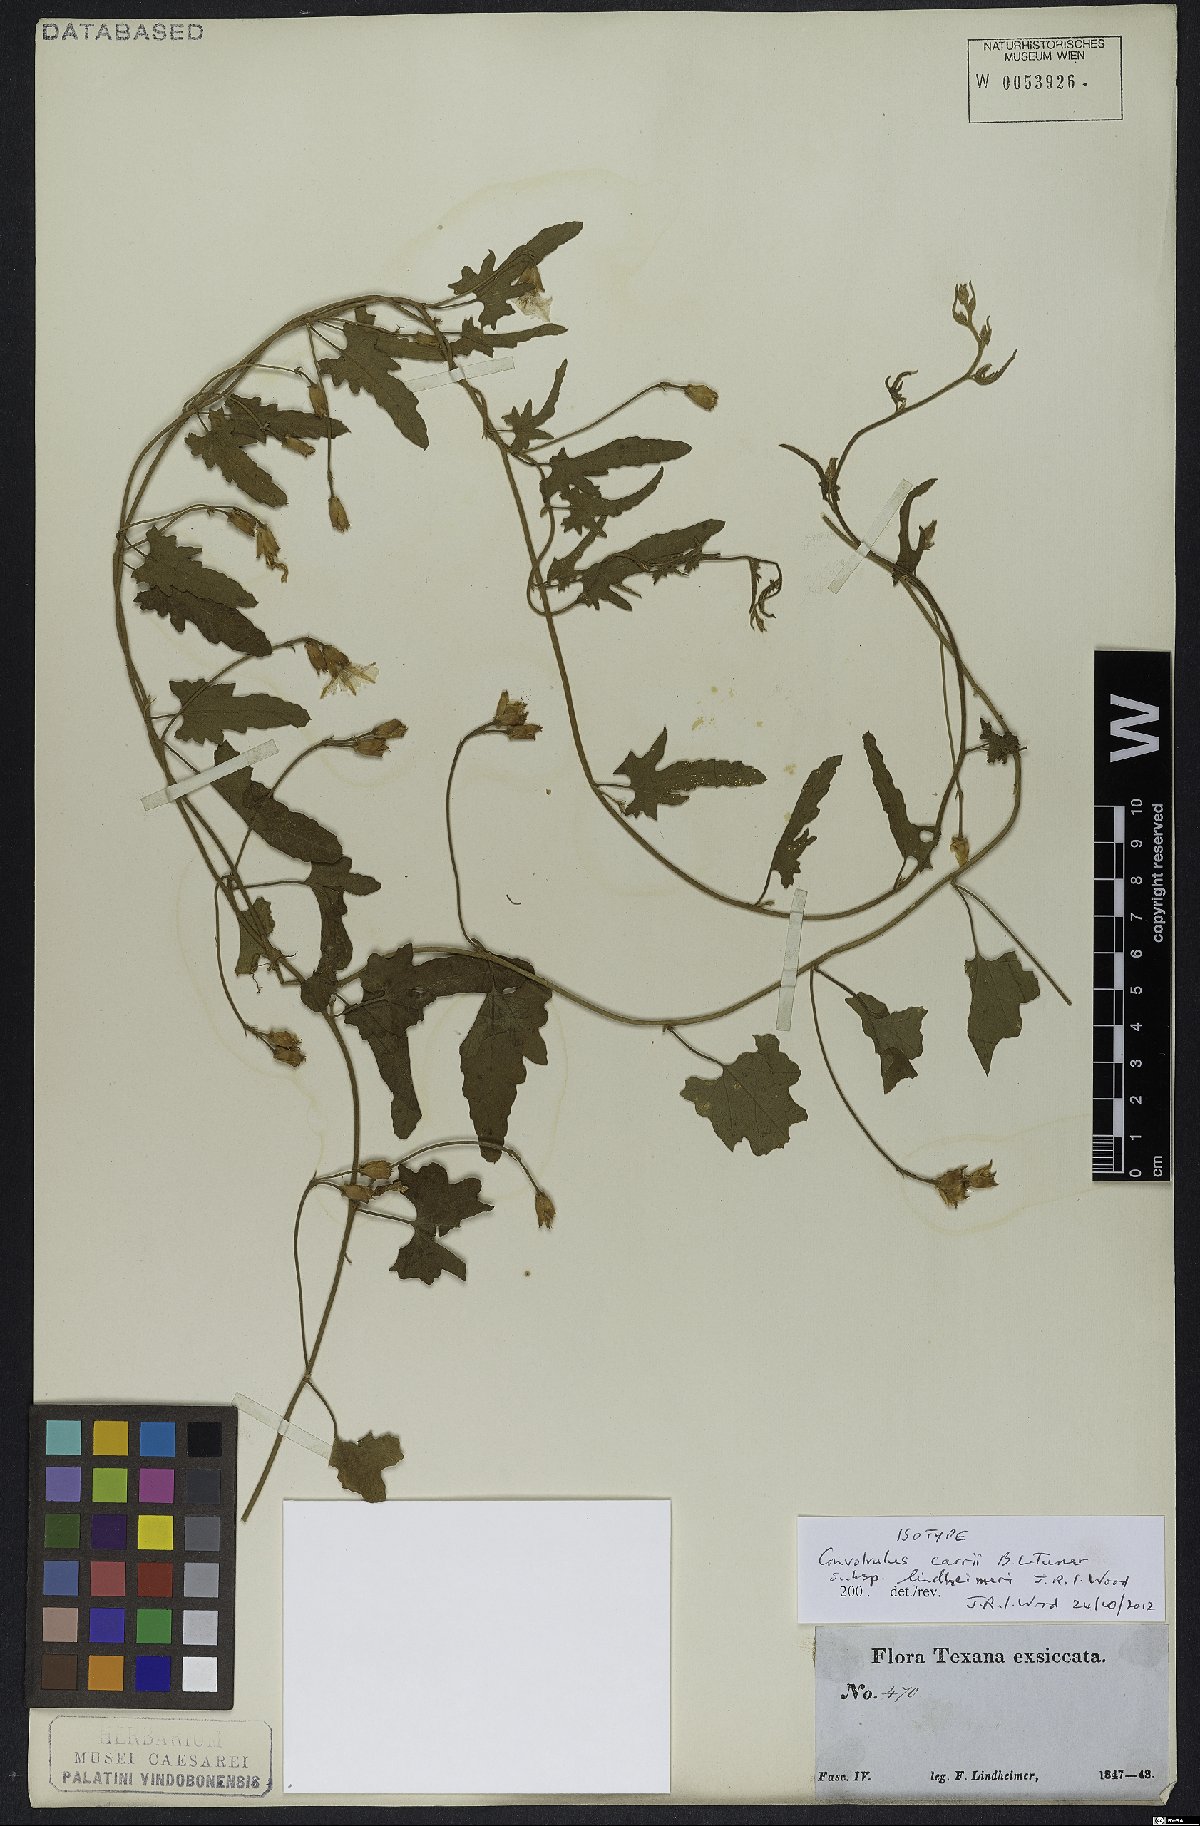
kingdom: Plantae
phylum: Tracheophyta
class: Magnoliopsida
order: Solanales
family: Convolvulaceae
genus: Convolvulus
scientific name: Convolvulus carrii
